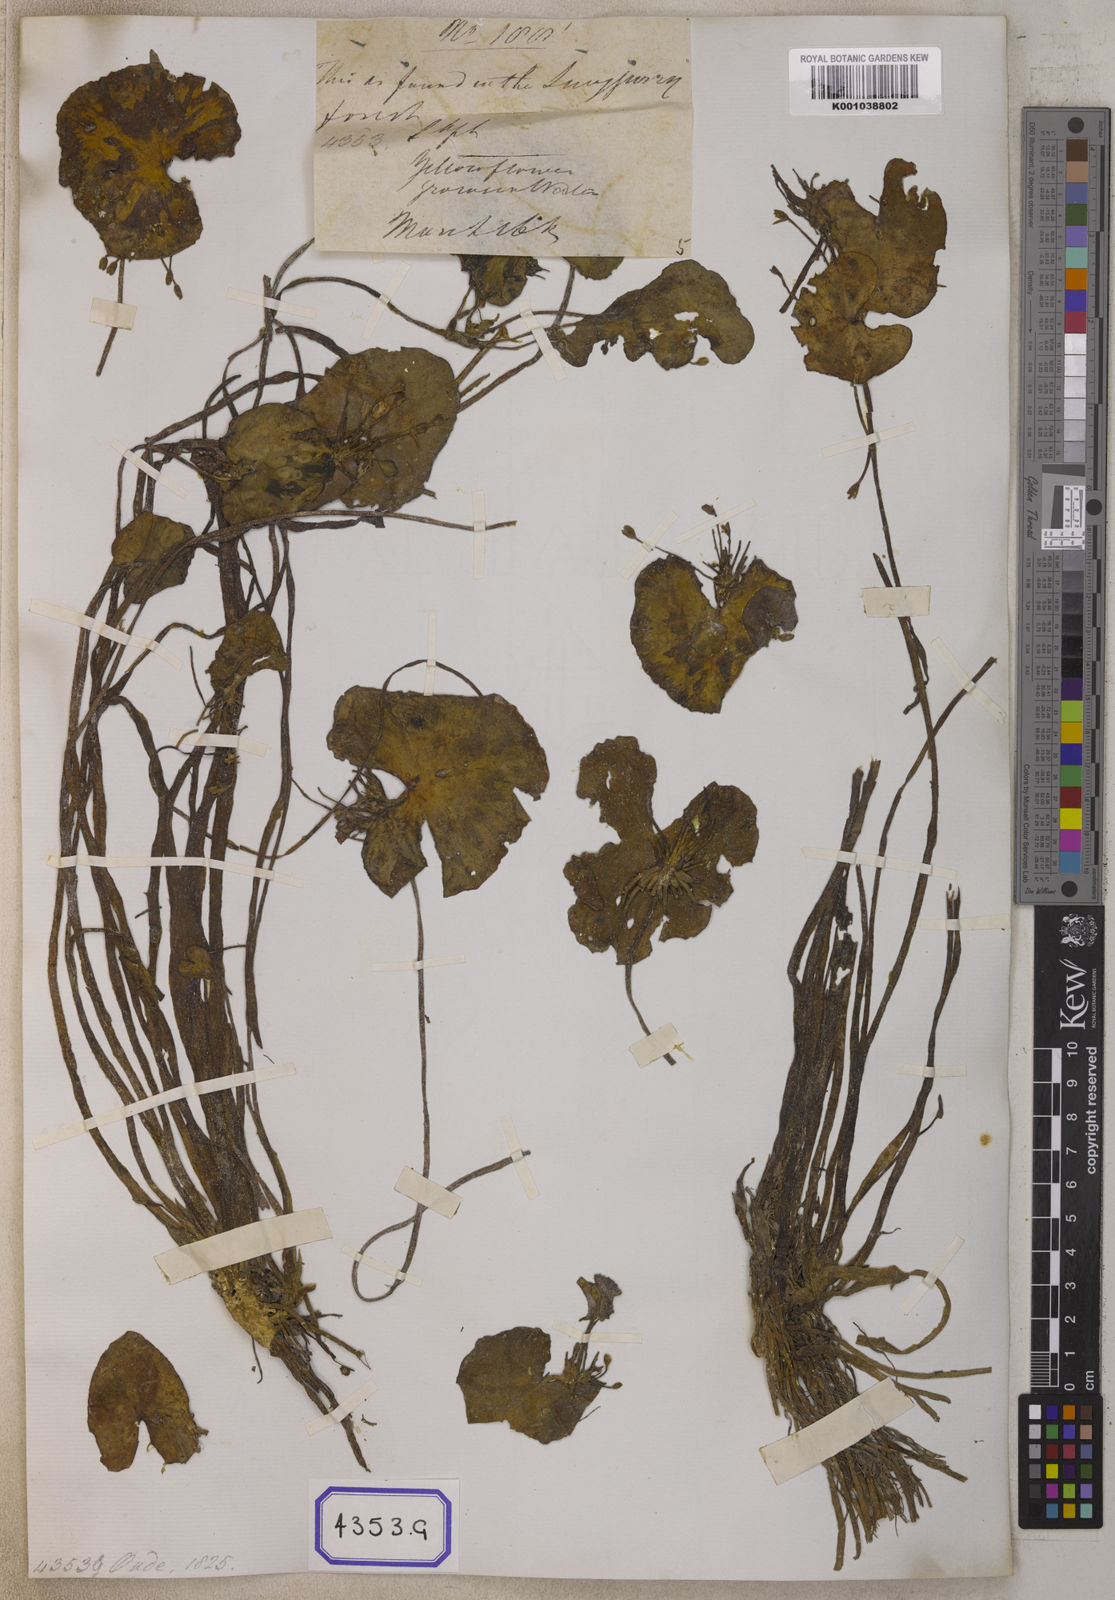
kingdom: Plantae
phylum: Tracheophyta
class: Magnoliopsida
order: Asterales
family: Menyanthaceae
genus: Nymphoides
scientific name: Nymphoides hydrophylla
